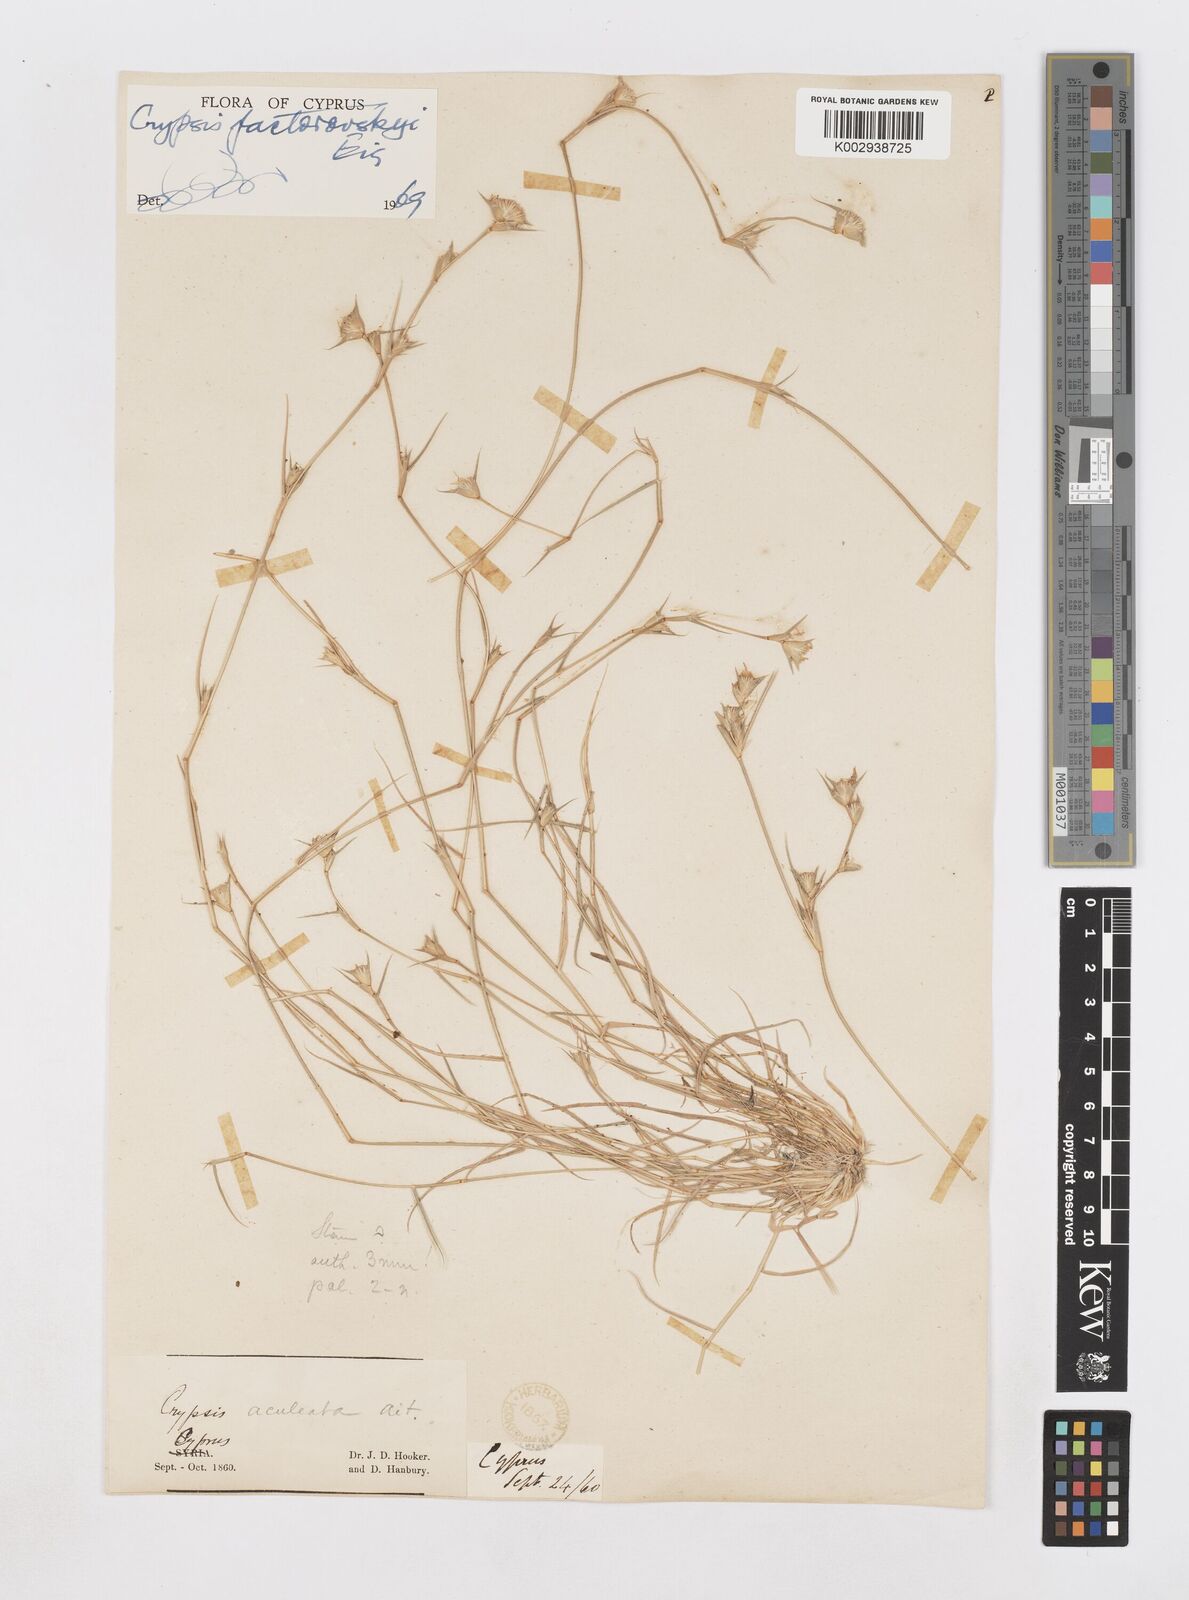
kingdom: Plantae
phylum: Tracheophyta
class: Liliopsida
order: Poales
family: Poaceae
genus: Sporobolus
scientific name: Sporobolus factorovskyi
